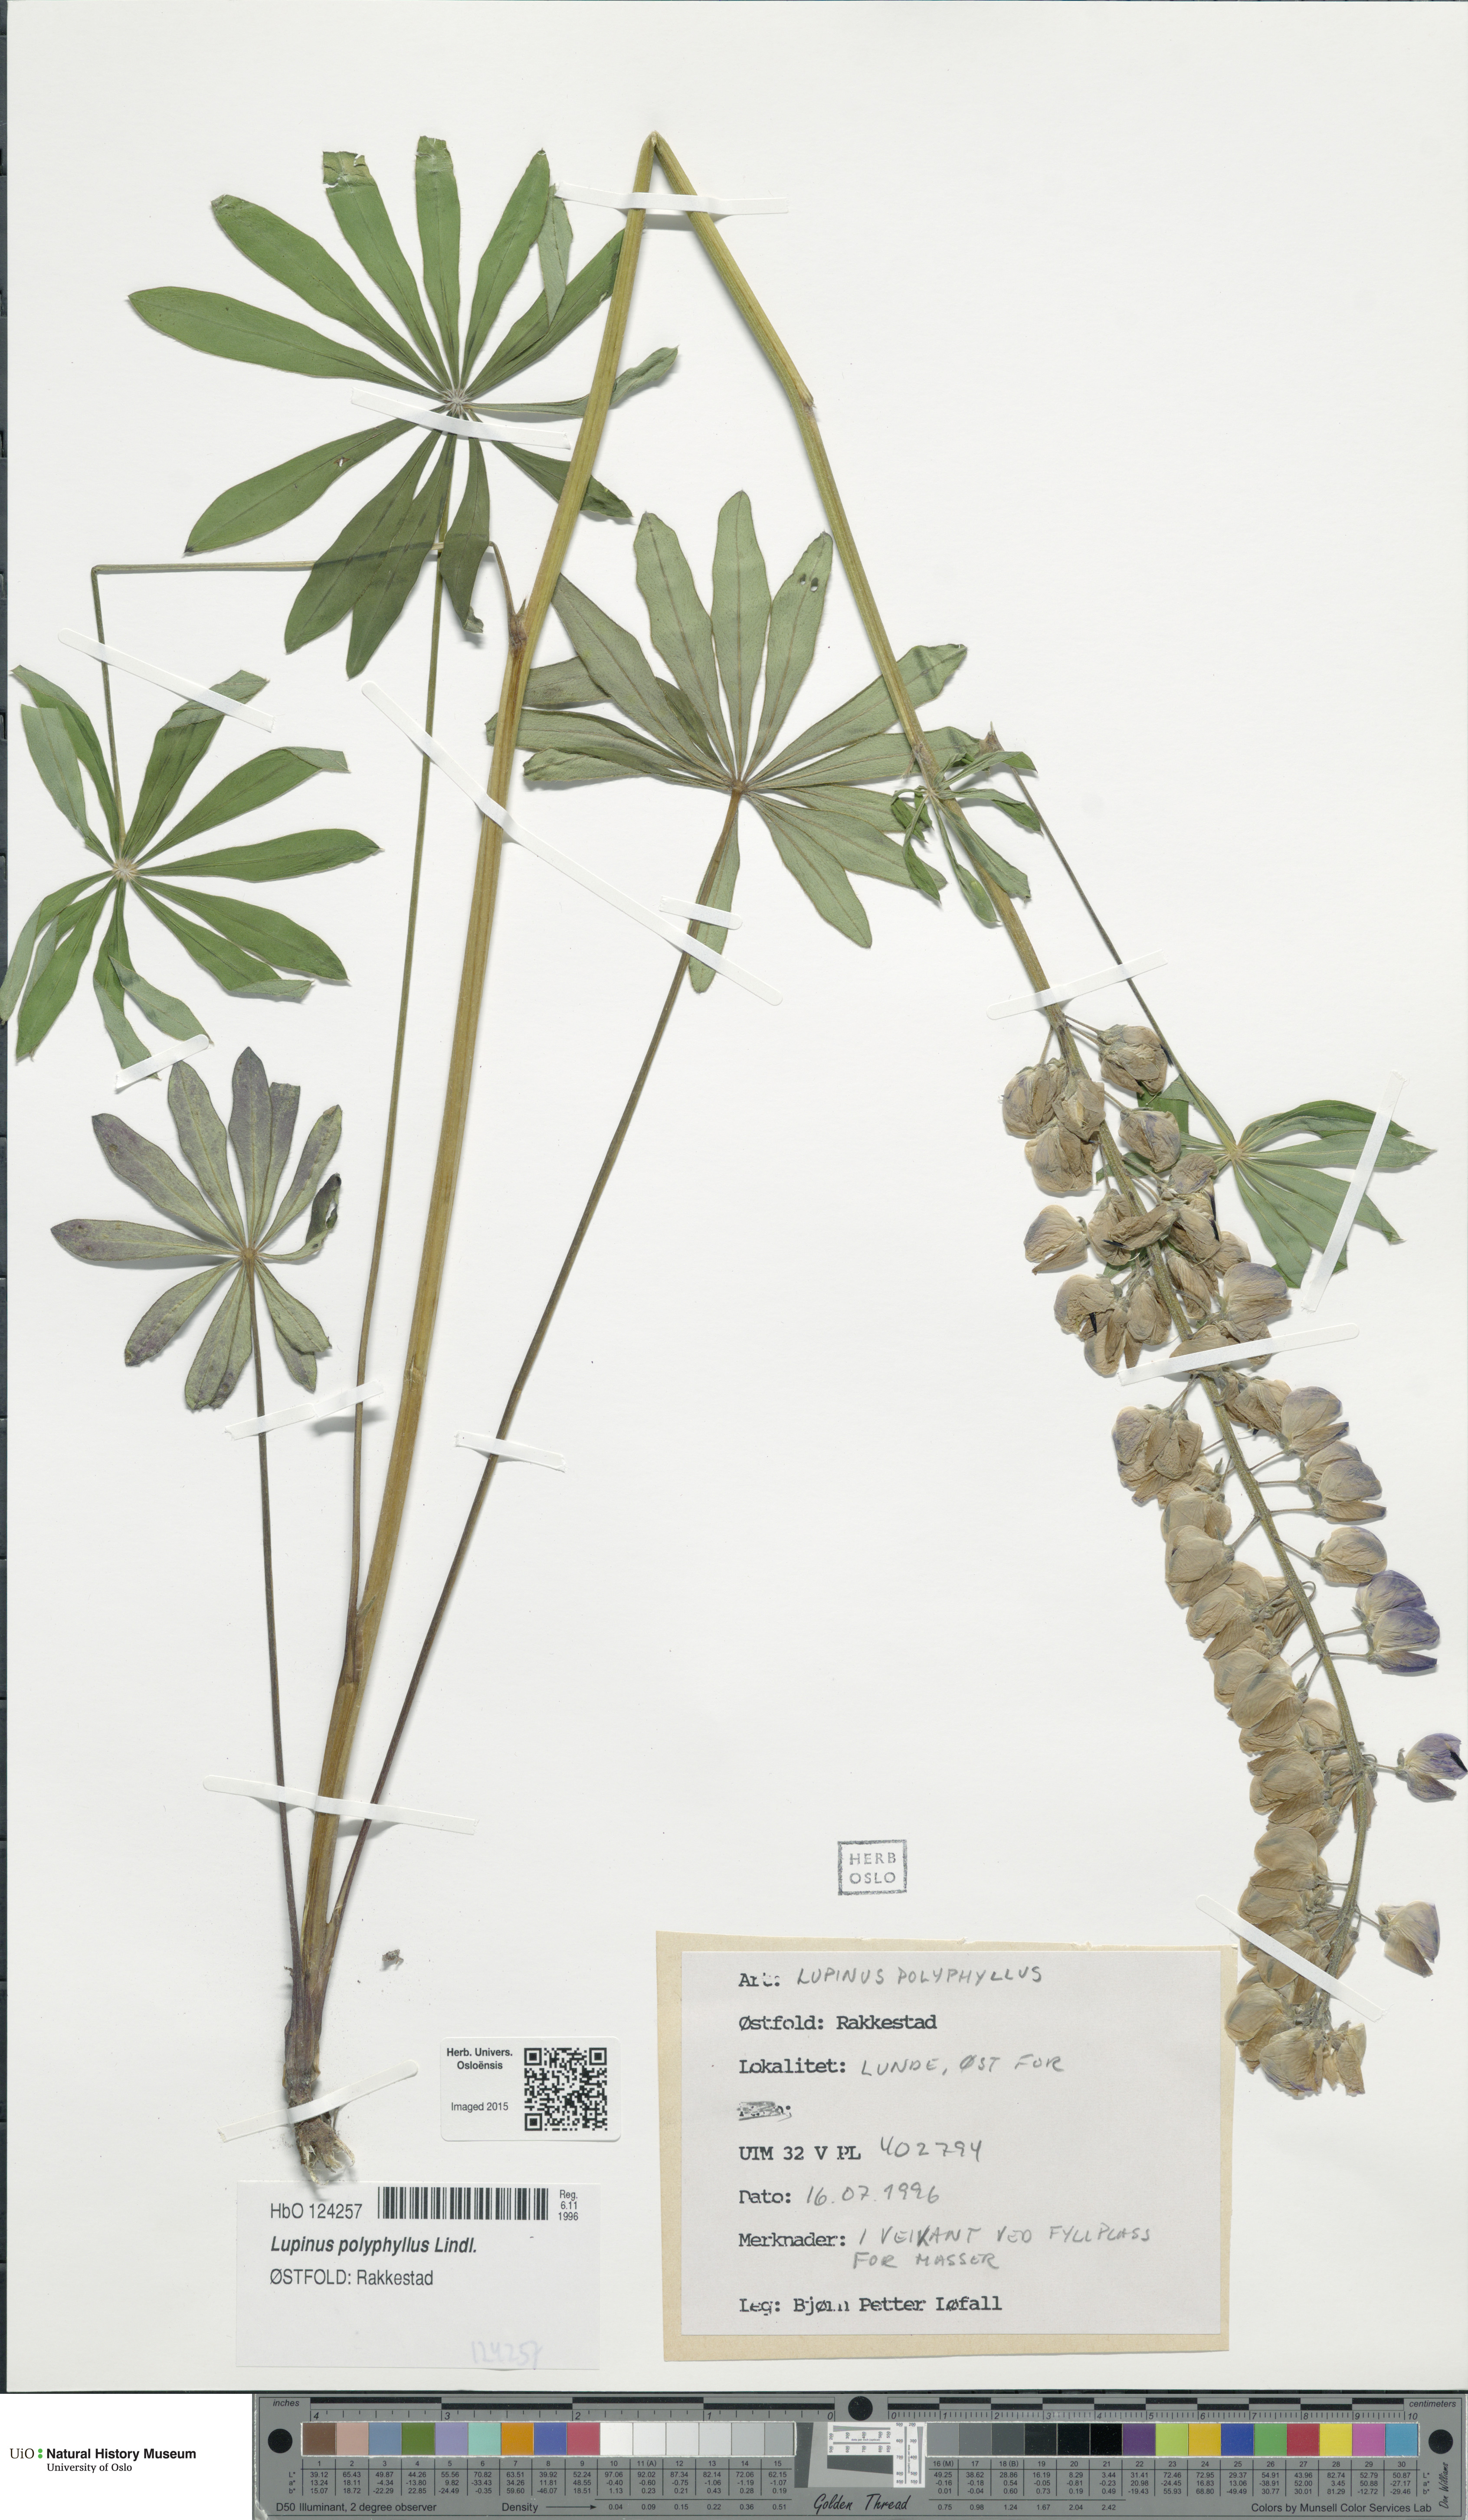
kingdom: Plantae
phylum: Tracheophyta
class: Magnoliopsida
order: Fabales
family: Fabaceae
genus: Lupinus
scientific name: Lupinus polyphyllus
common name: Garden lupin
